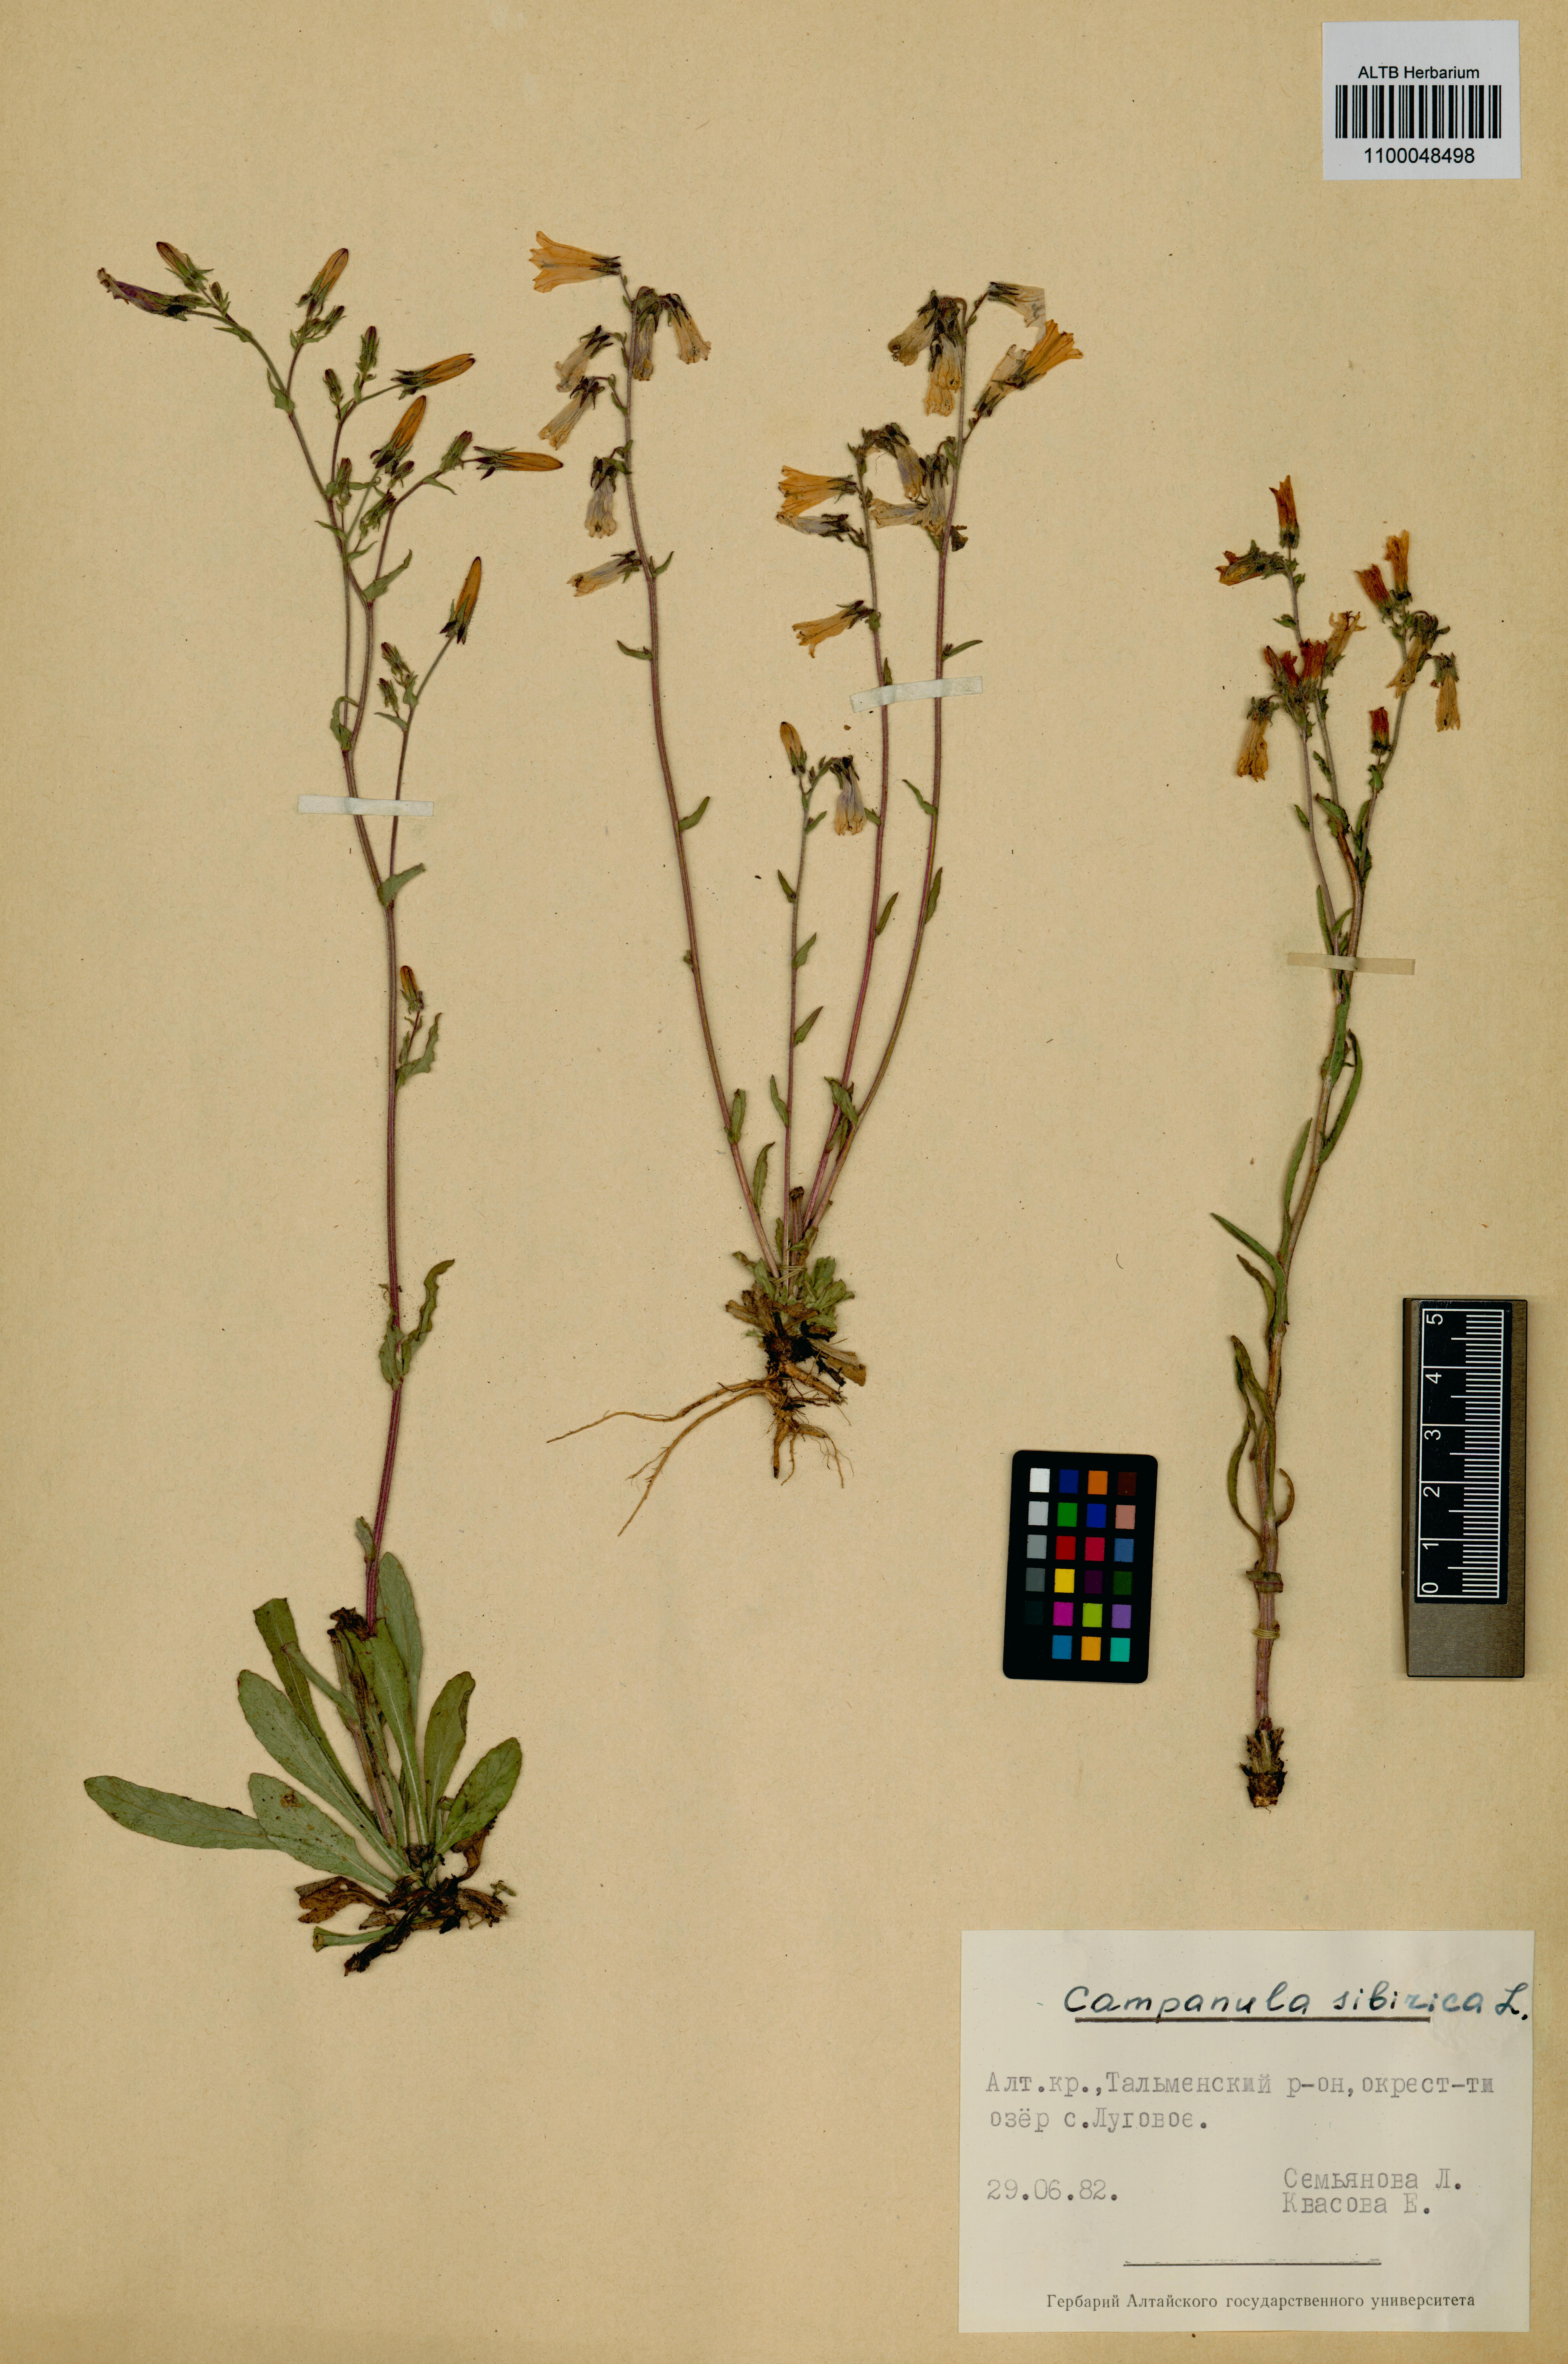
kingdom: Plantae
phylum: Tracheophyta
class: Magnoliopsida
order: Asterales
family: Campanulaceae
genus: Campanula
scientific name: Campanula sibirica
